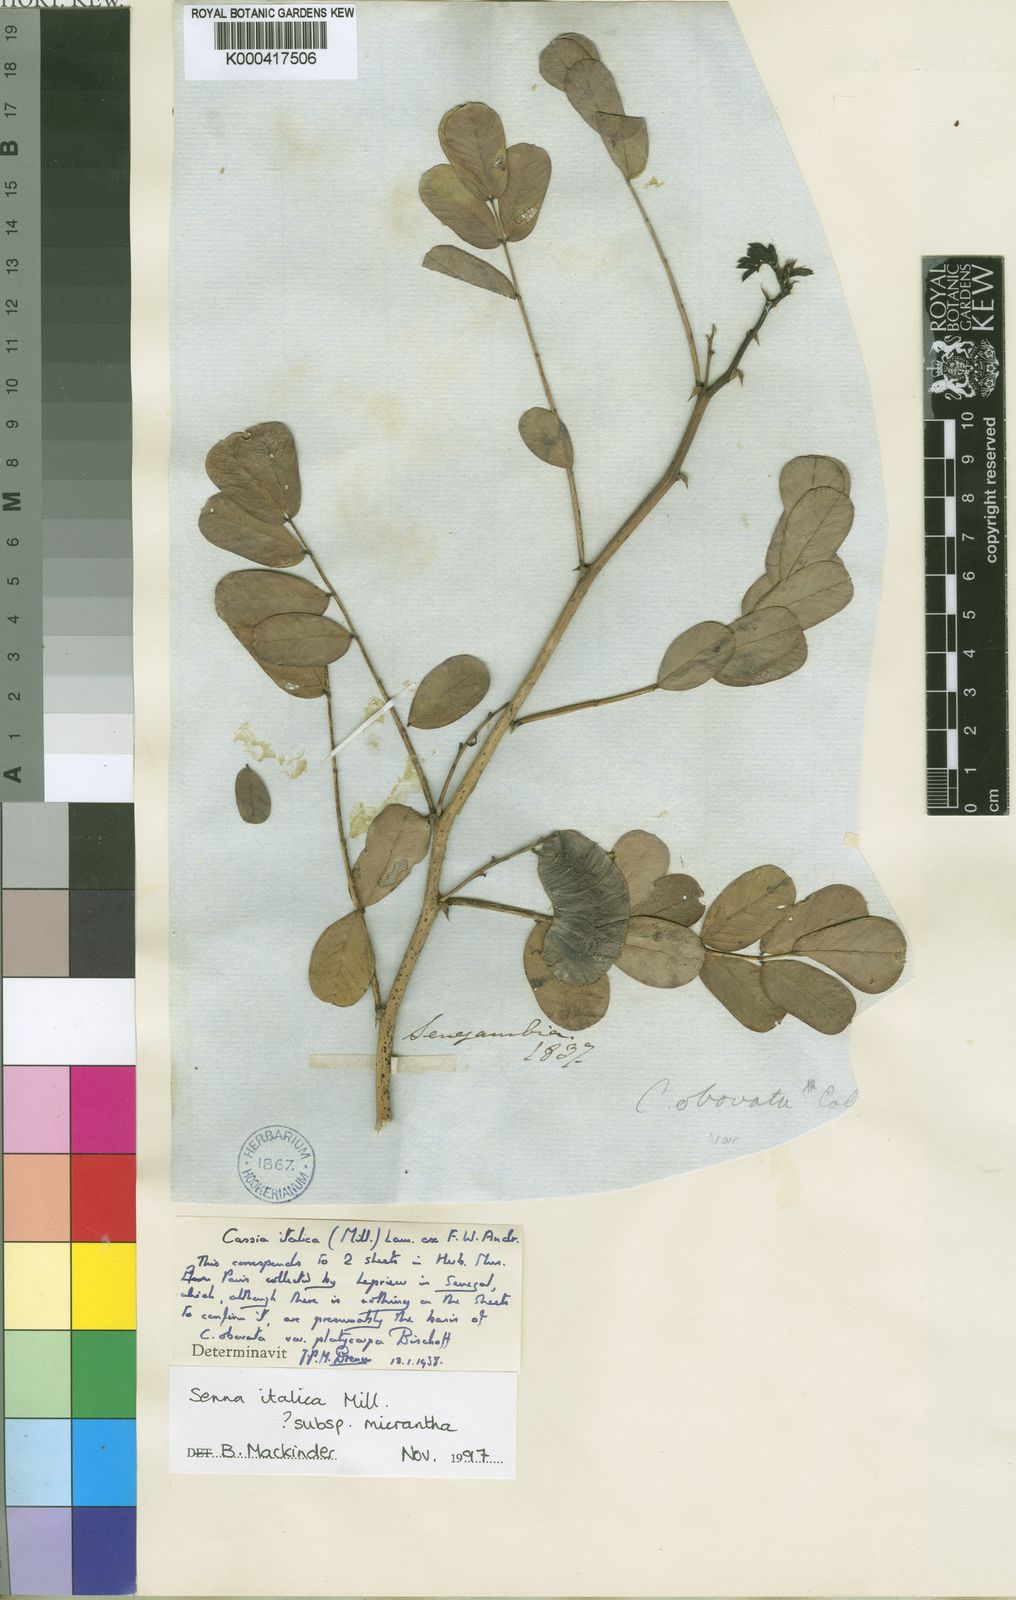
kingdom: Plantae
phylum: Tracheophyta
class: Magnoliopsida
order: Fabales
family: Fabaceae
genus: Senna
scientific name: Senna italica
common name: Port royal senna
